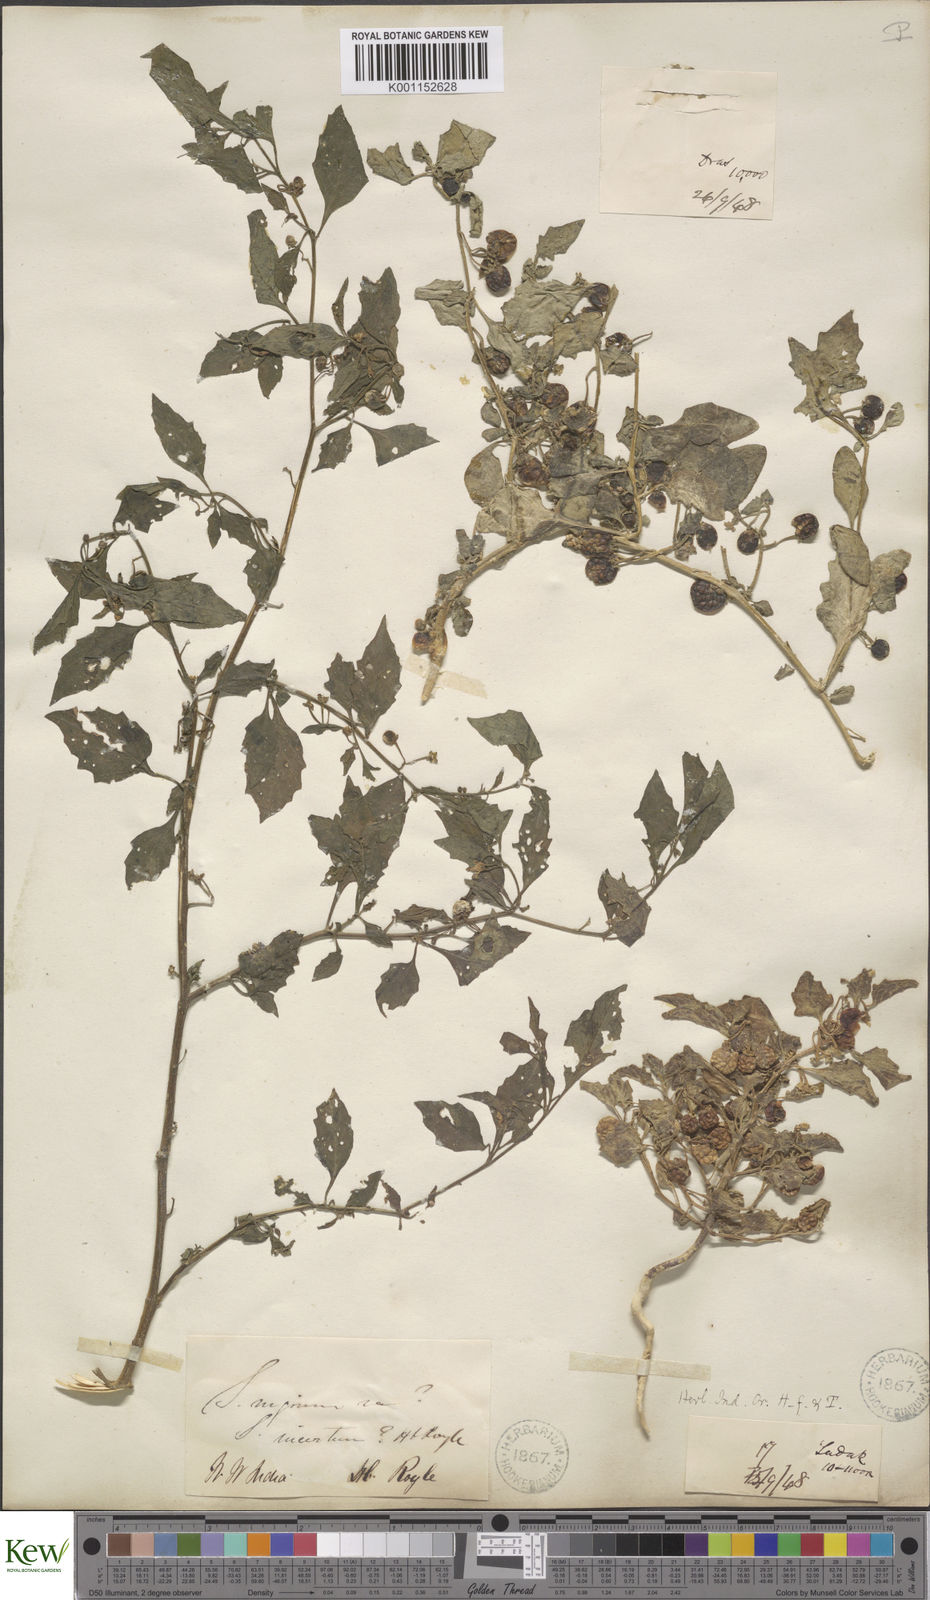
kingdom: Plantae
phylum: Tracheophyta
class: Magnoliopsida
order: Solanales
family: Solanaceae
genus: Solanum
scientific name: Solanum nigrum
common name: Black nightshade
